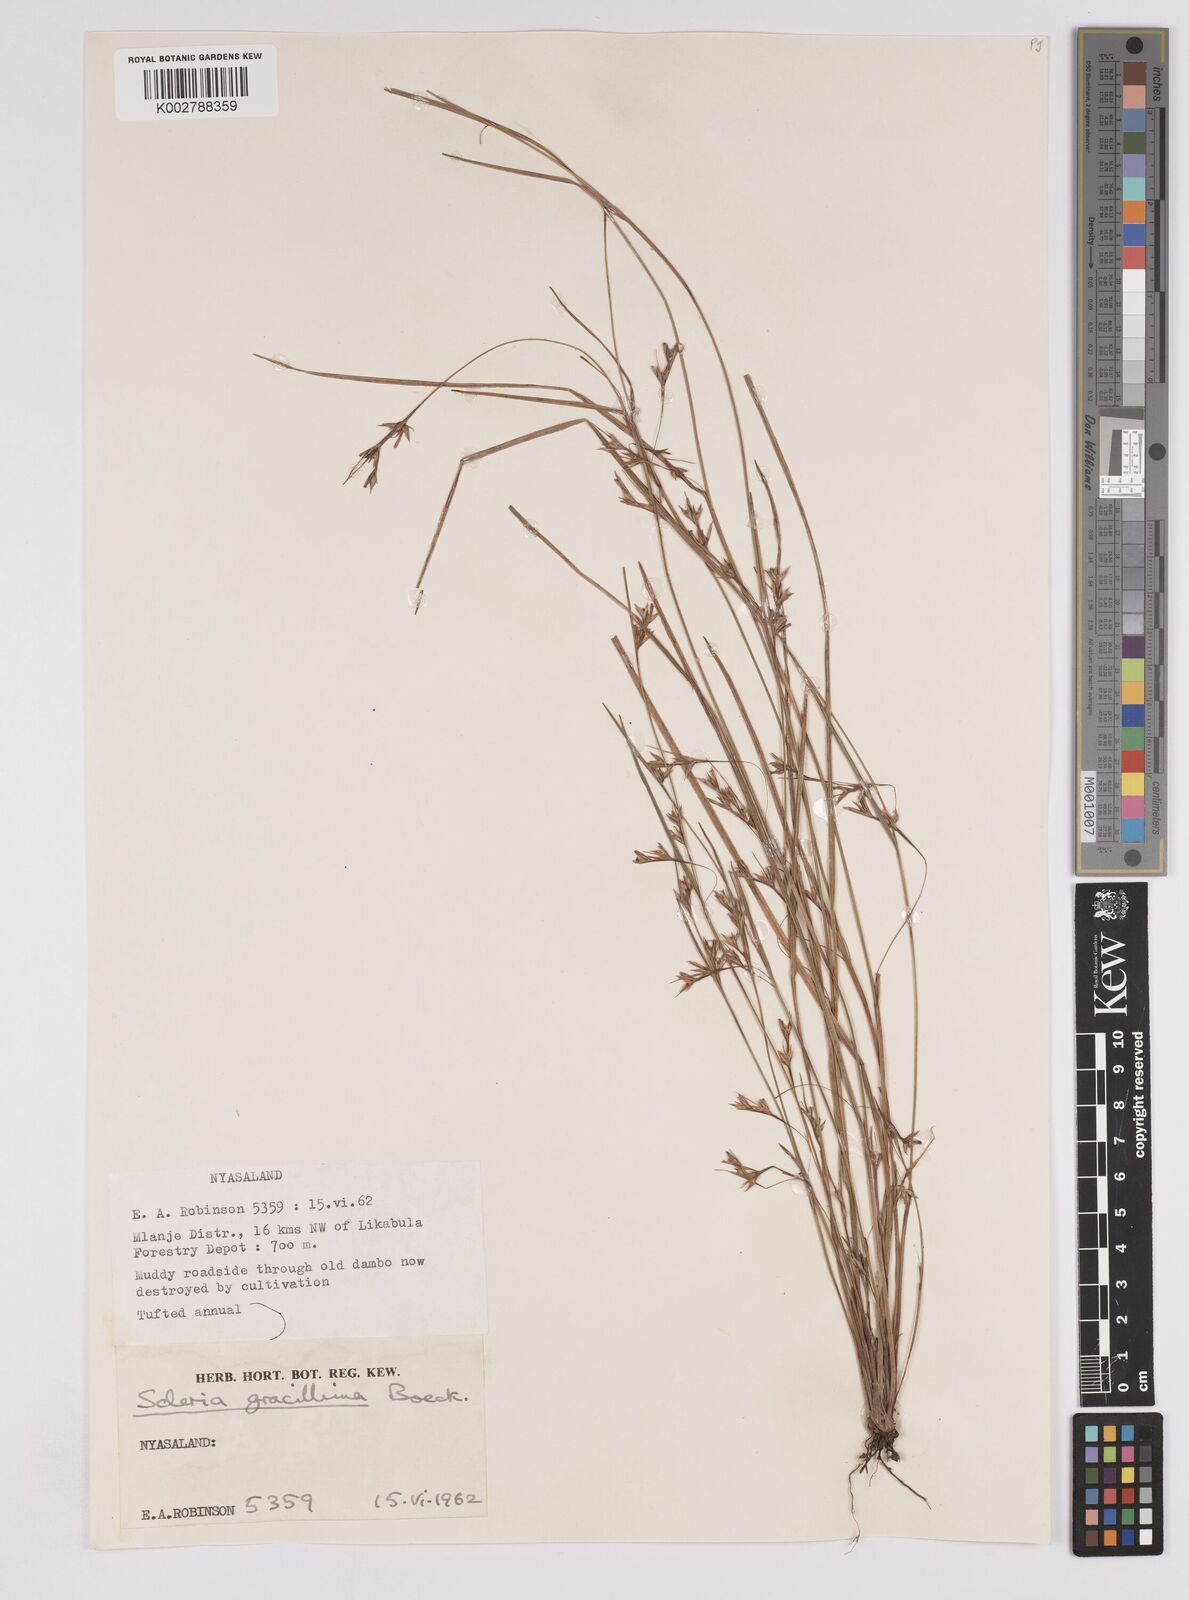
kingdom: Plantae
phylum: Tracheophyta
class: Liliopsida
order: Poales
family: Cyperaceae
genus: Scleria
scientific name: Scleria gracillima
